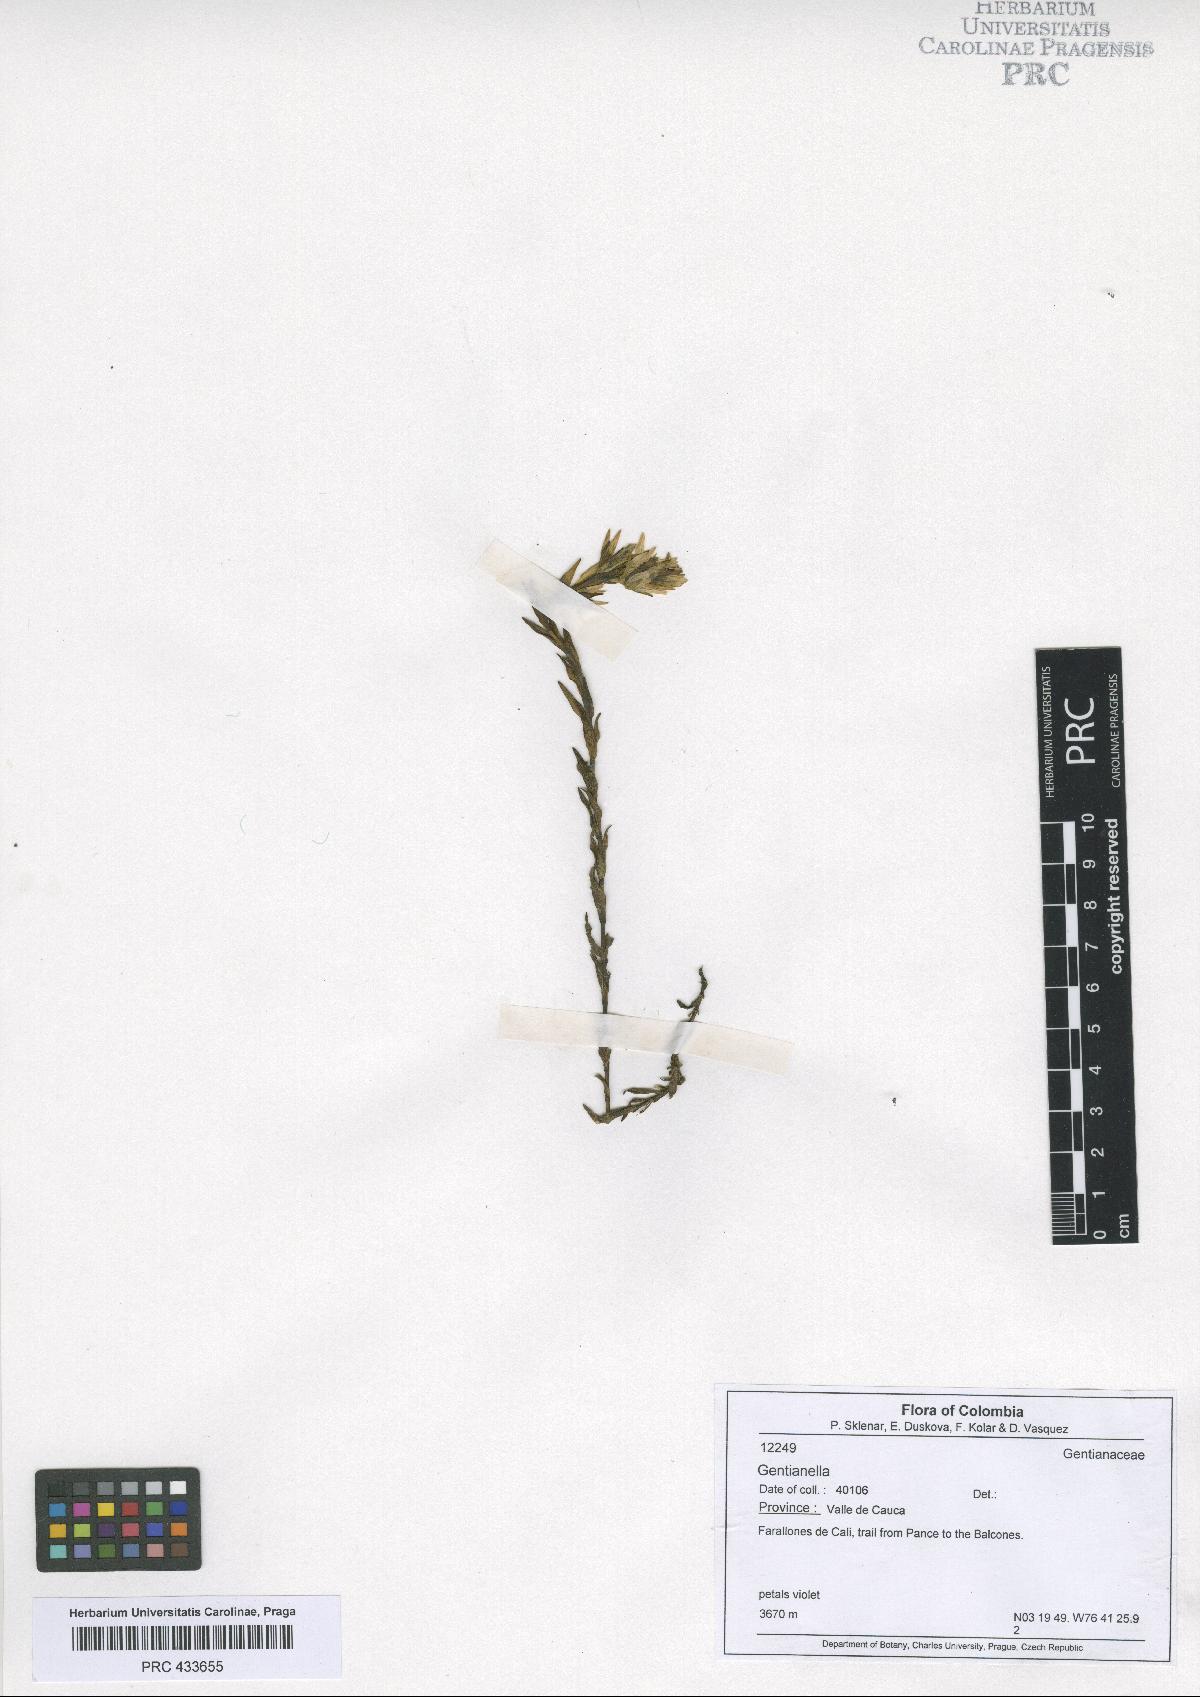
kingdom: Plantae
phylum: Tracheophyta
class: Magnoliopsida
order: Gentianales
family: Gentianaceae
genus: Gentianella
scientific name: Gentianella
